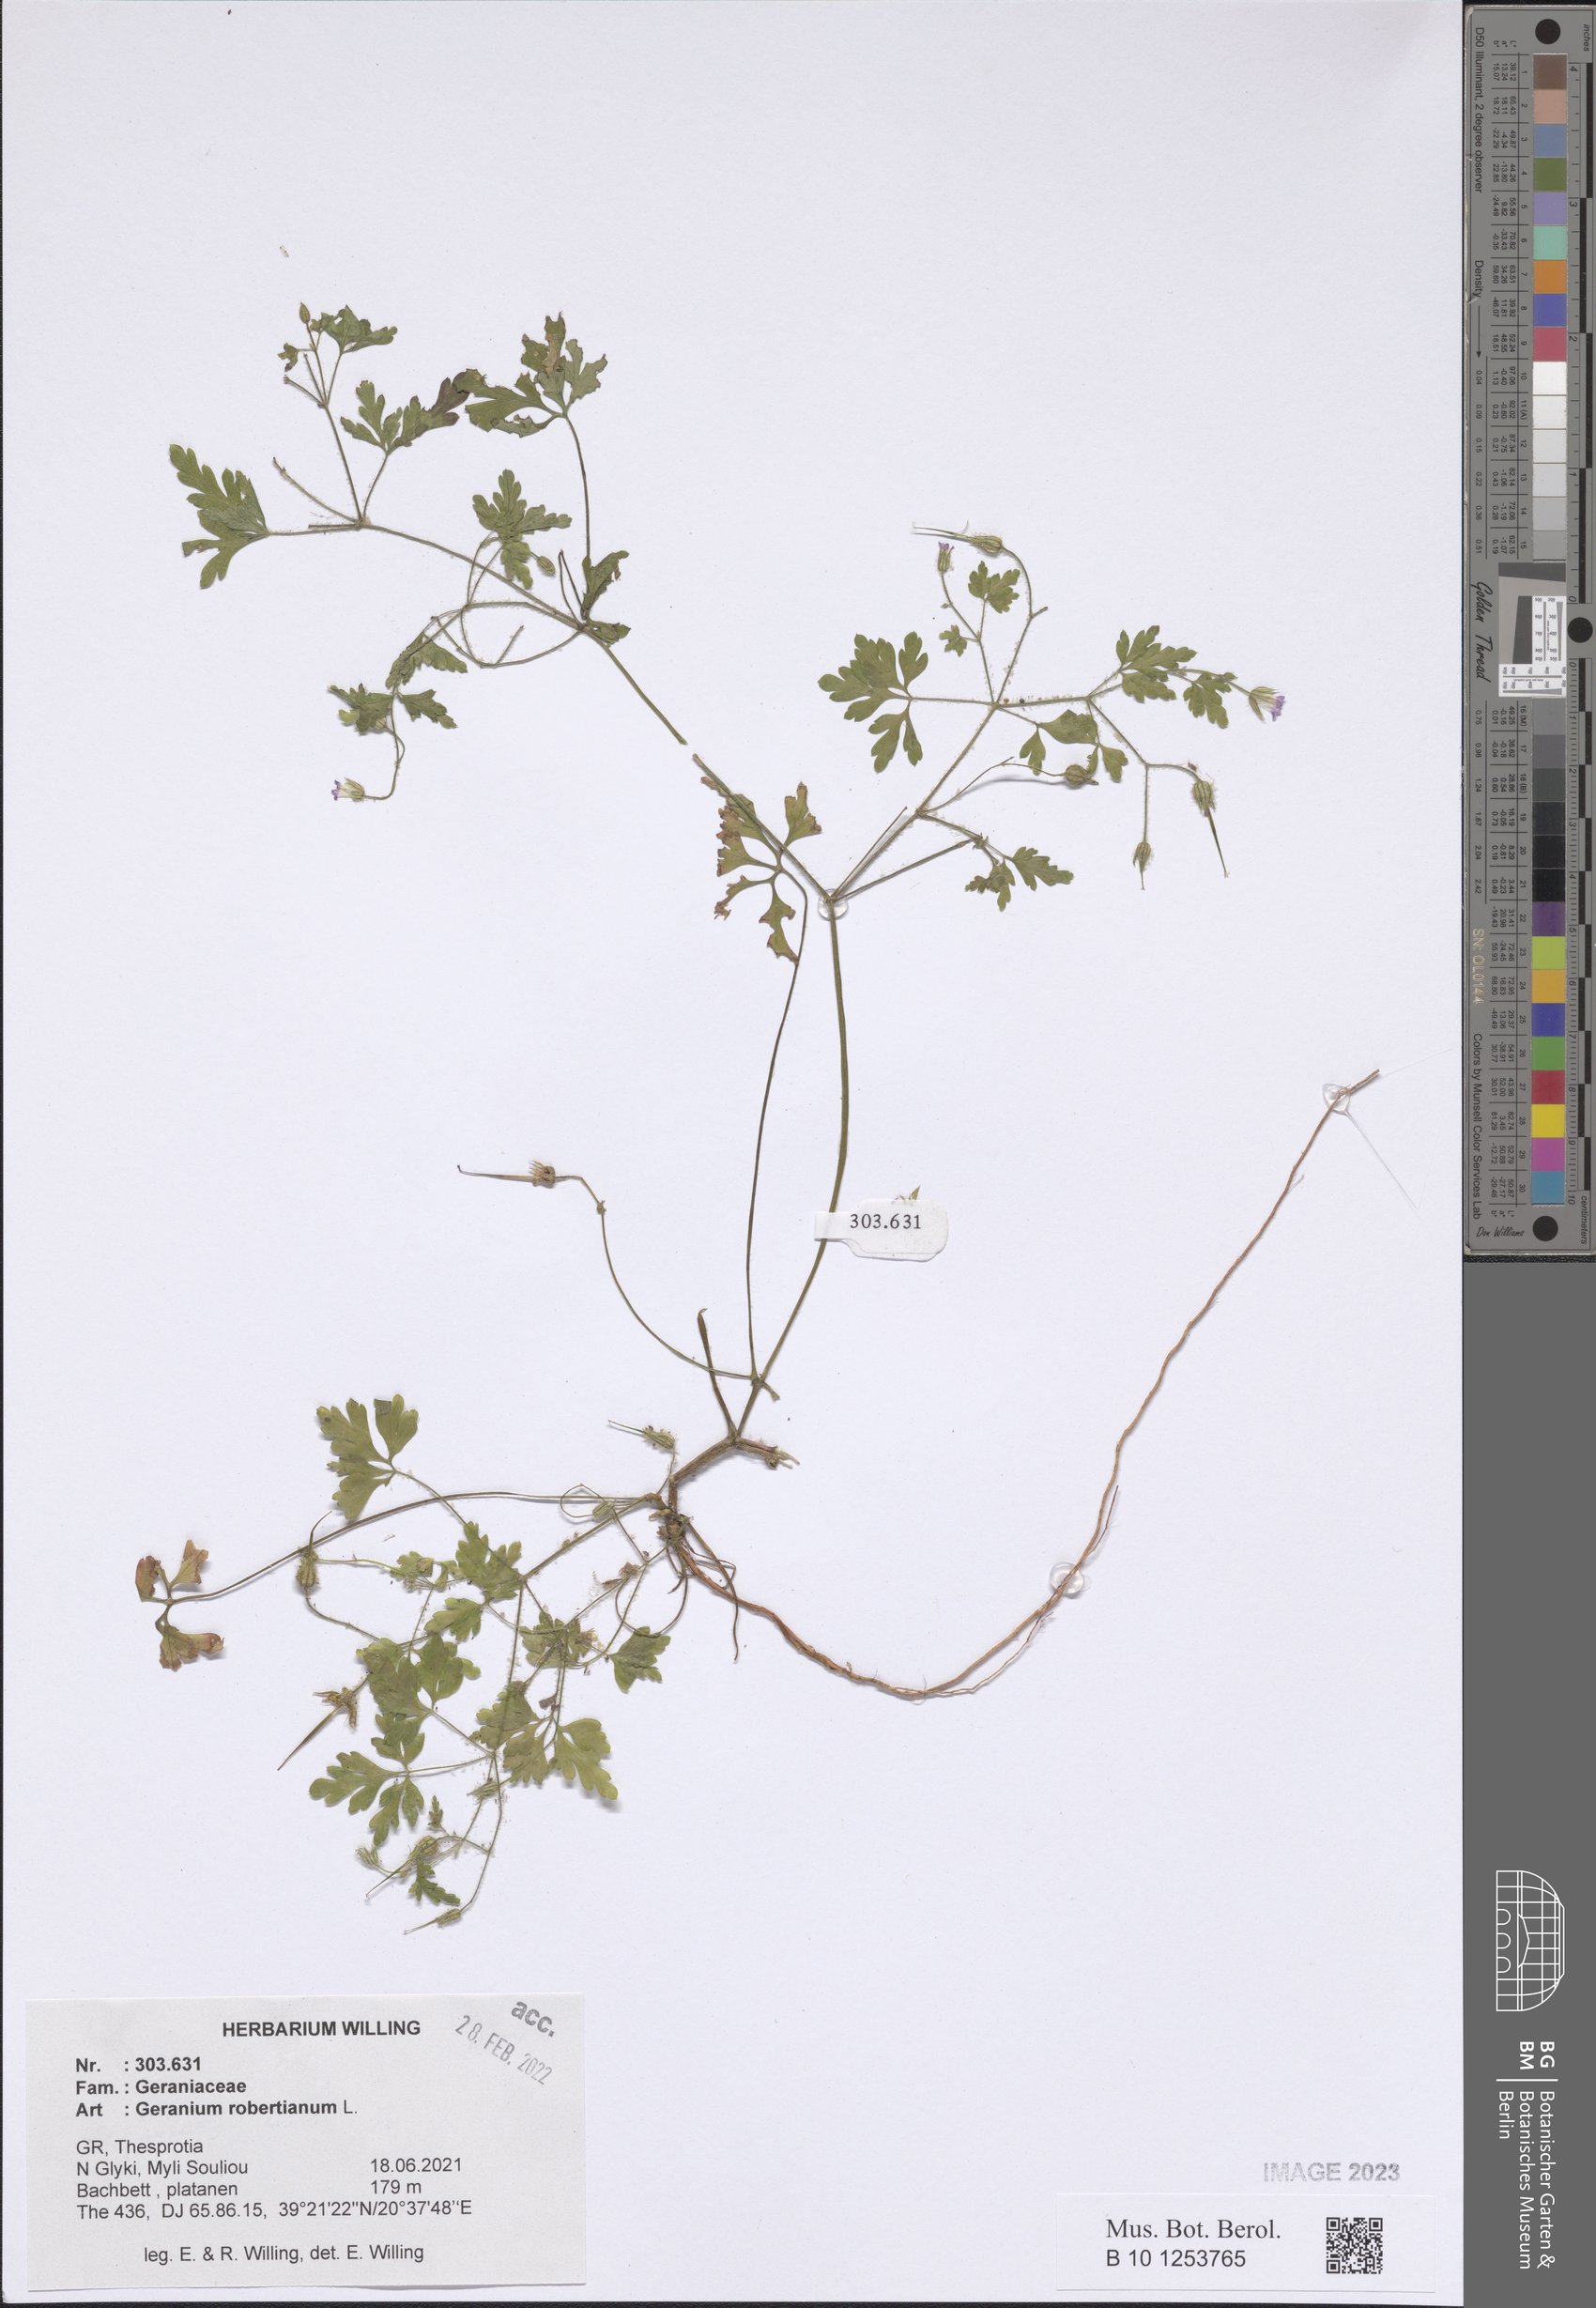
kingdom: Plantae
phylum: Tracheophyta
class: Magnoliopsida
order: Geraniales
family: Geraniaceae
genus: Geranium
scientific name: Geranium robertianum
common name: Herb-robert
